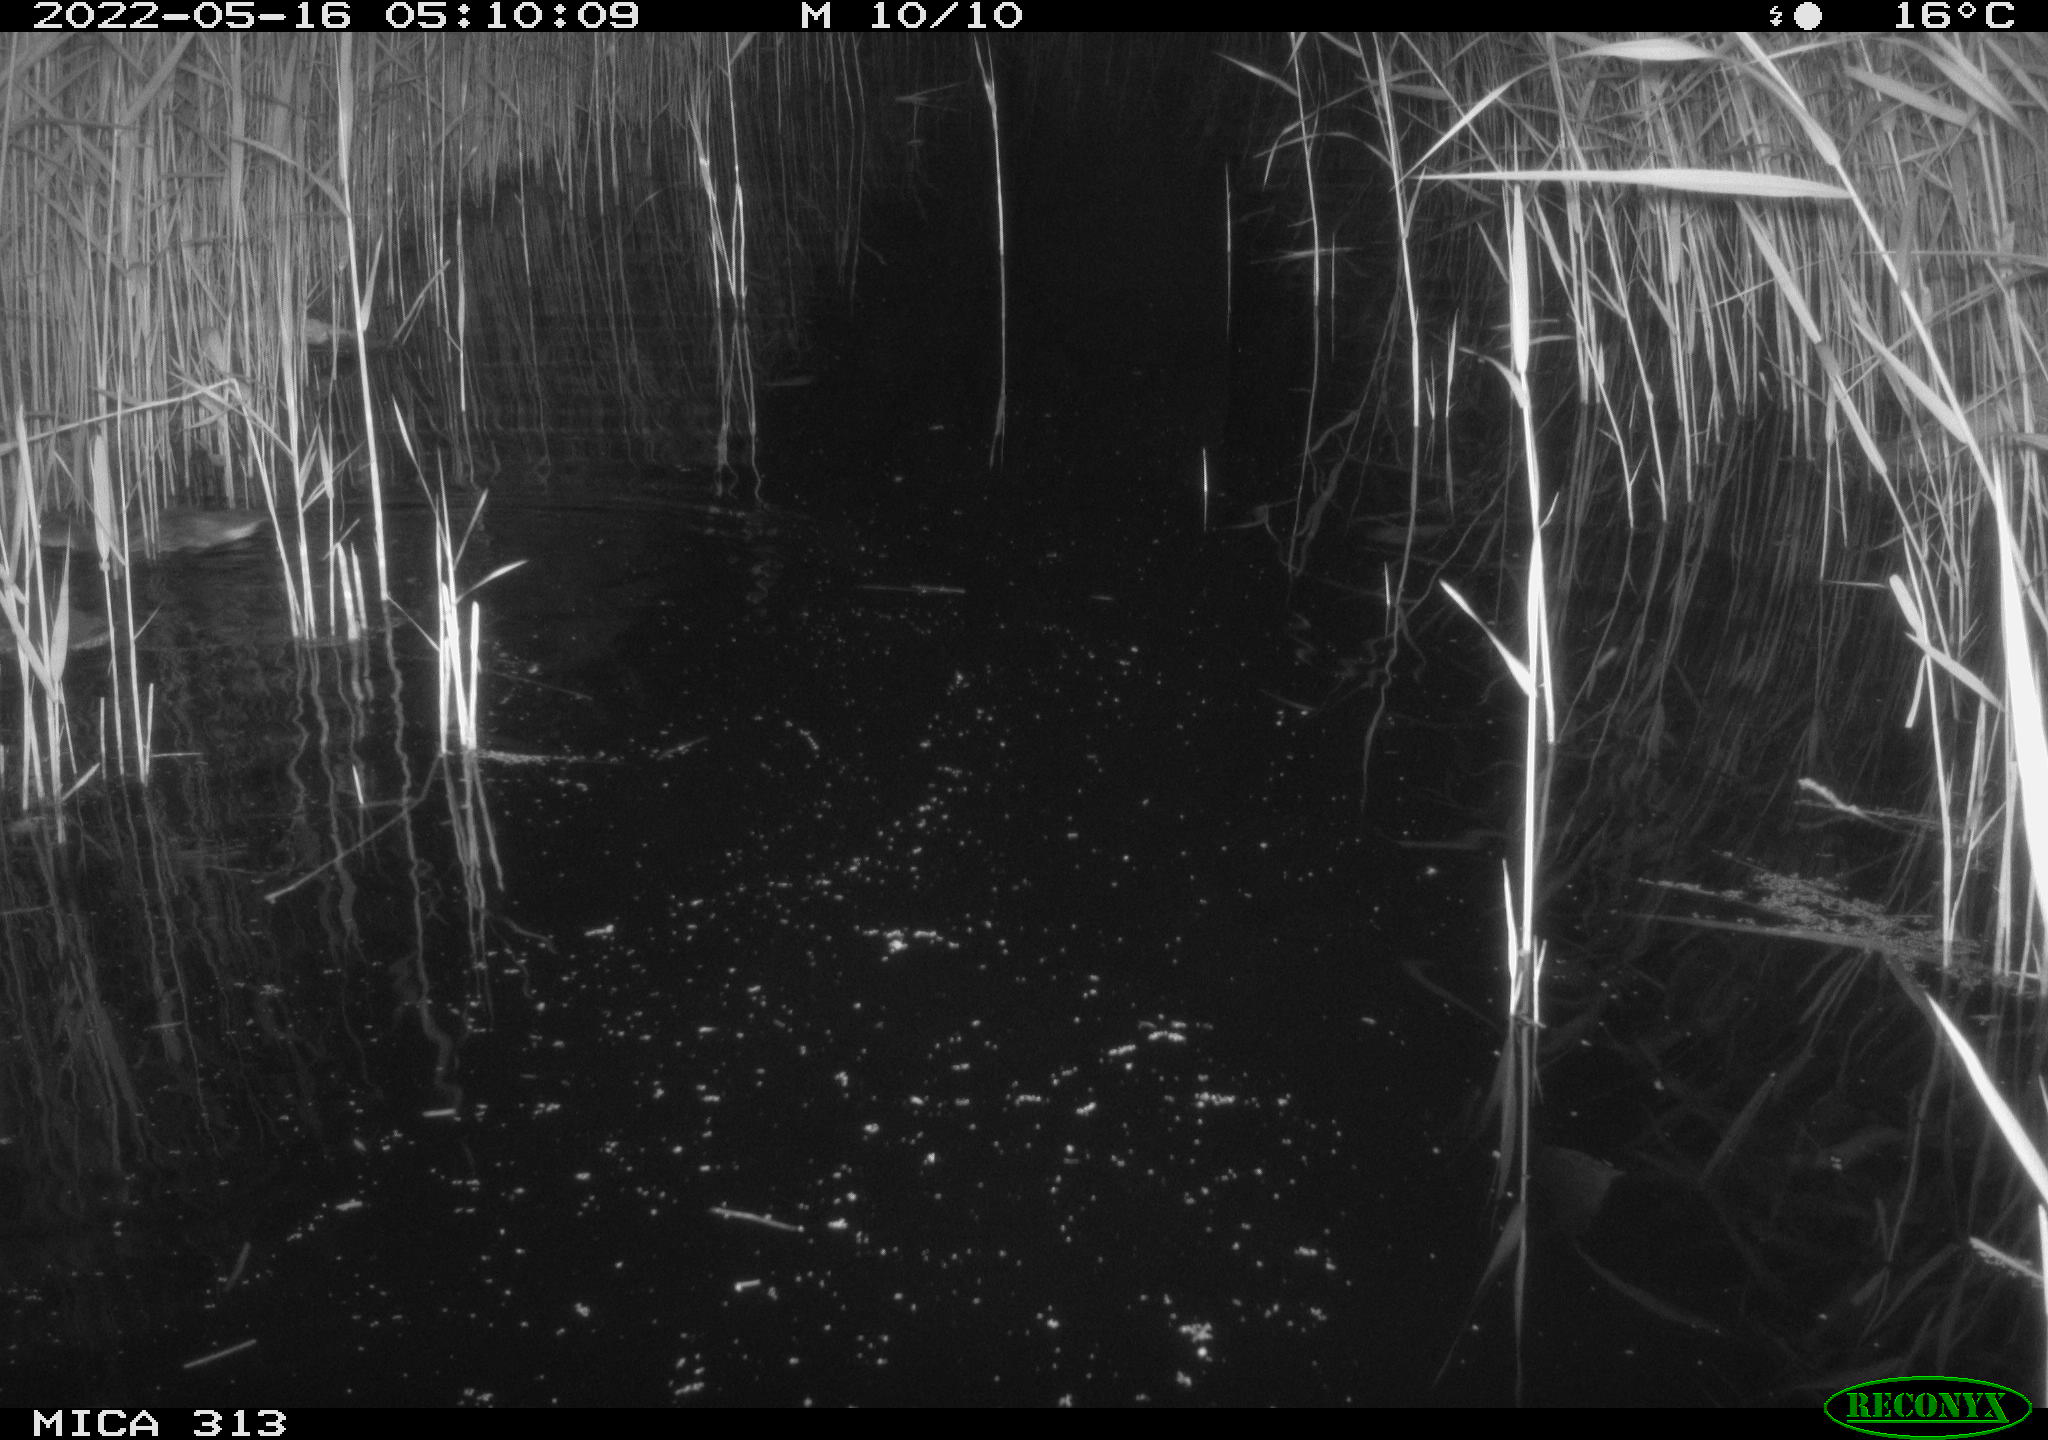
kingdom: Animalia
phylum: Chordata
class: Aves
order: Anseriformes
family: Anatidae
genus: Anas
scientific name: Anas platyrhynchos
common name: Mallard
